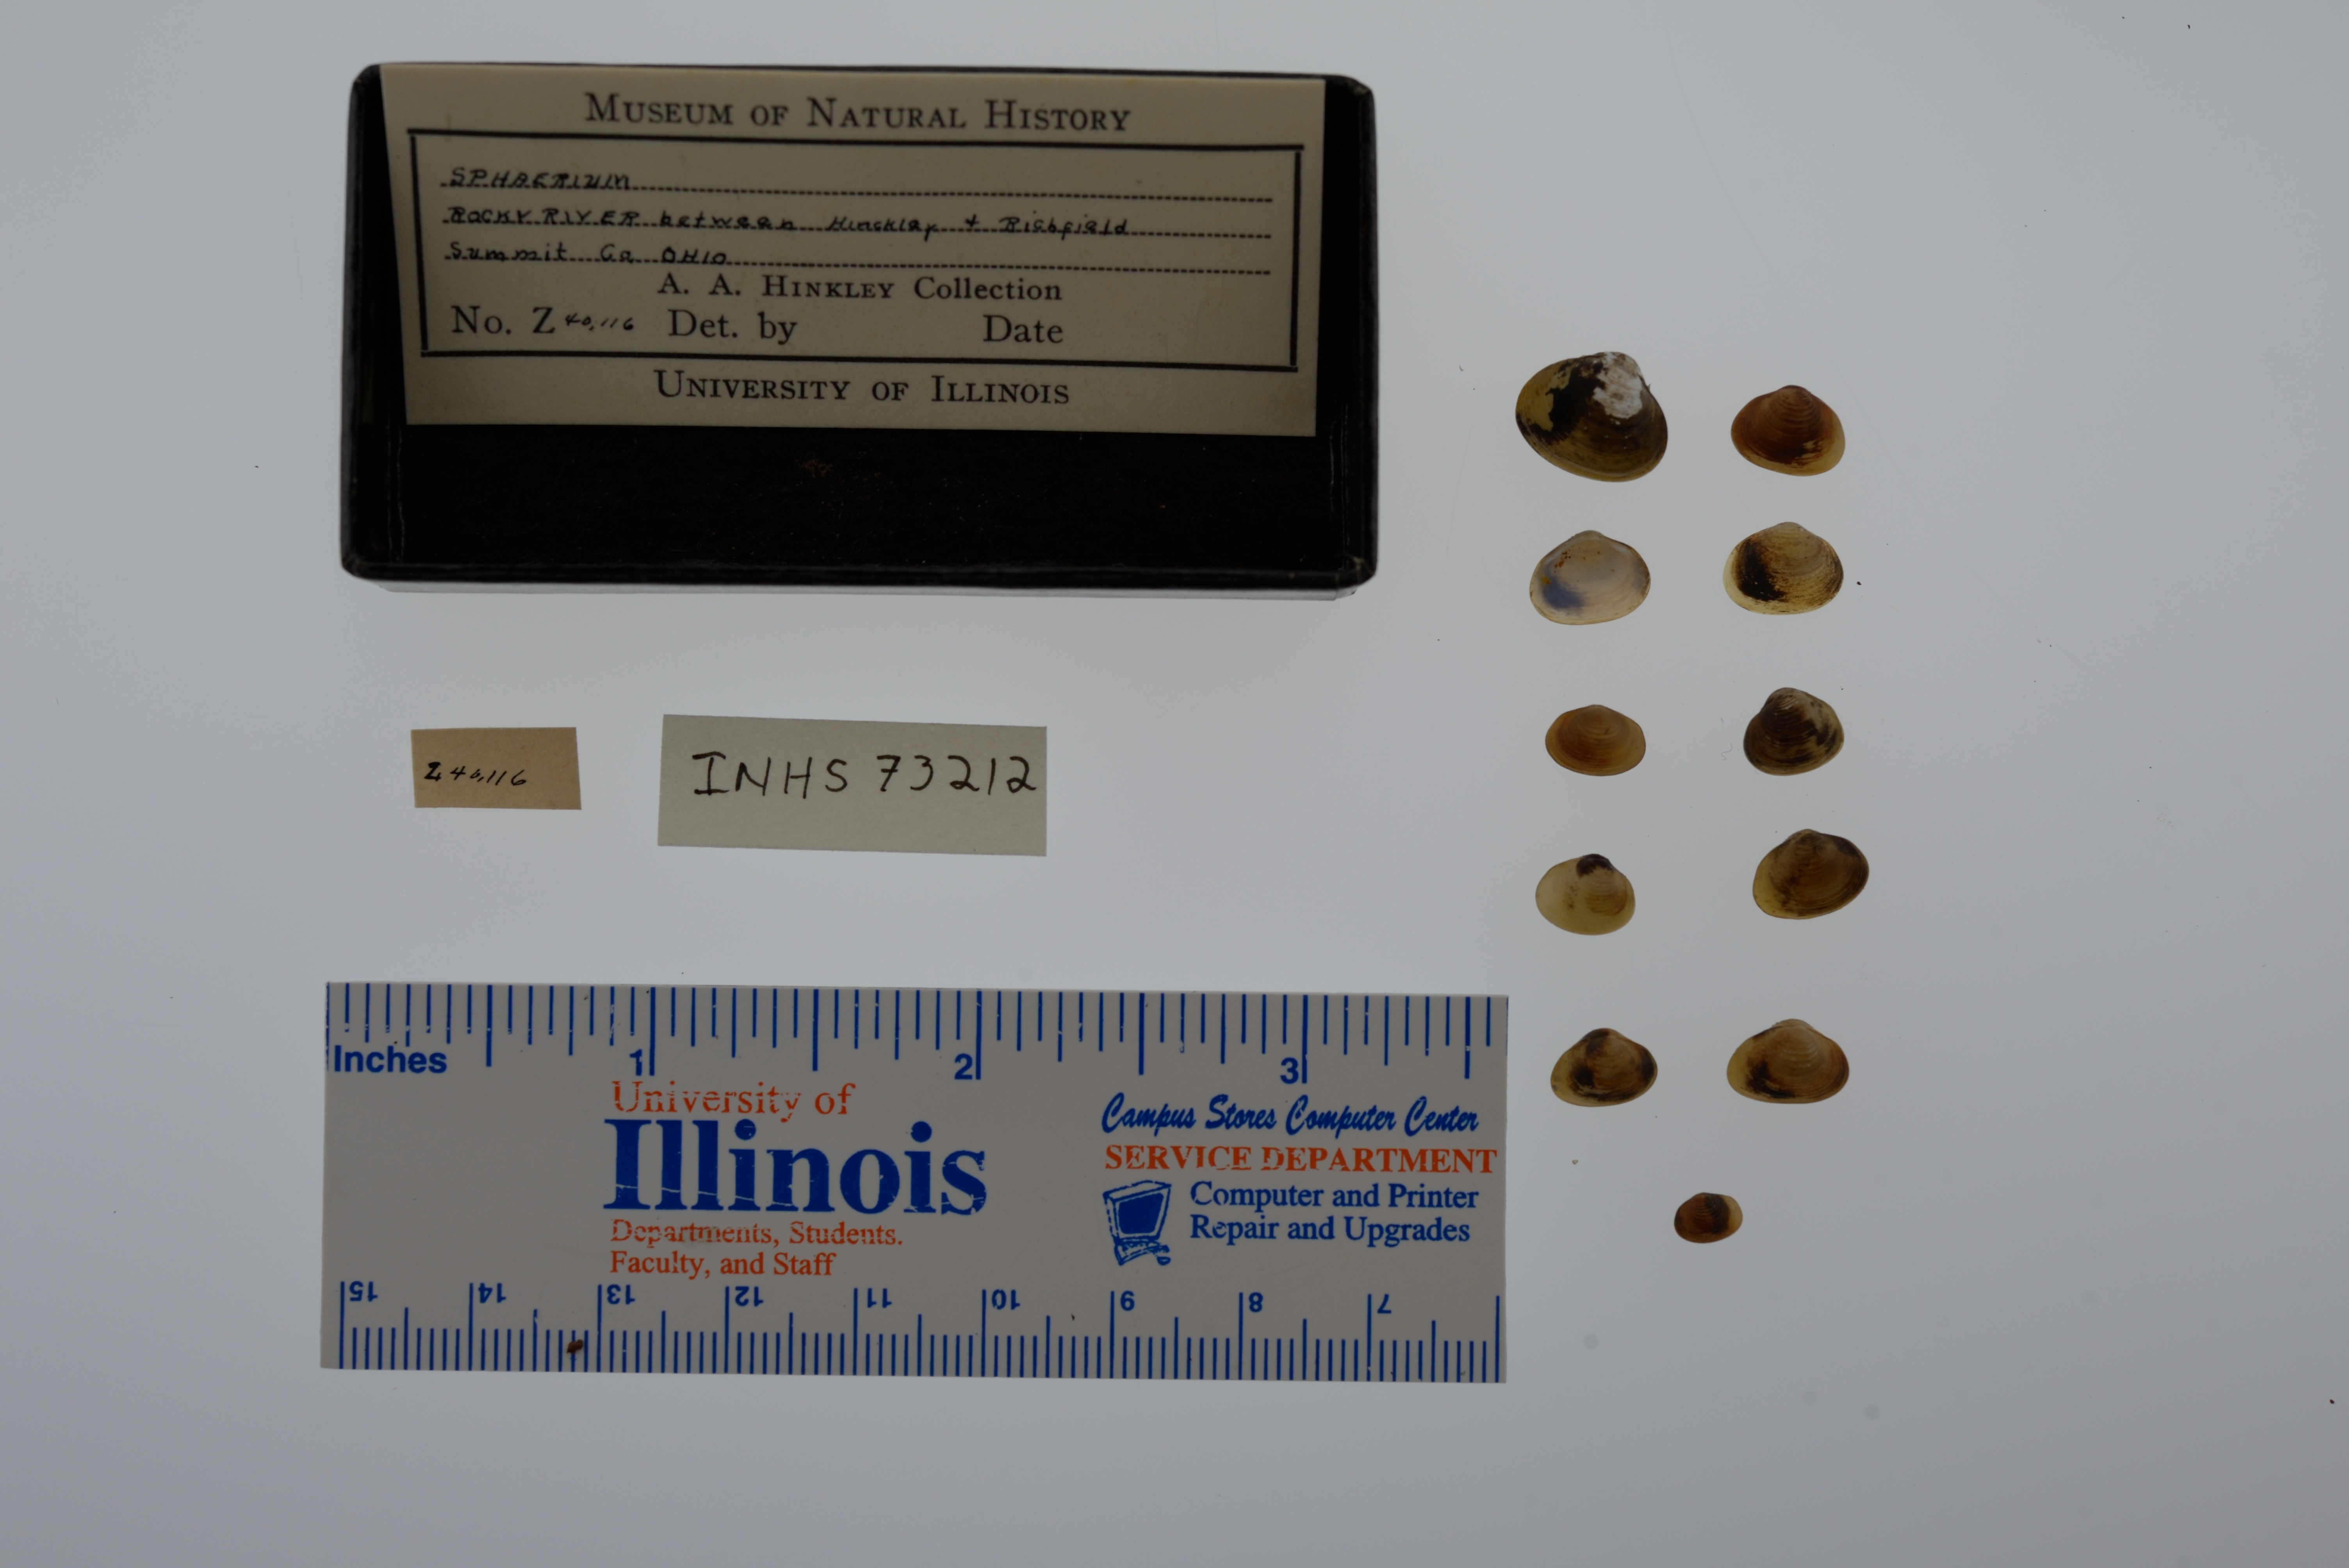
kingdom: Animalia
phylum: Mollusca
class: Bivalvia
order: Sphaeriida
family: Sphaeriidae
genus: Sphaerium
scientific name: Sphaerium
